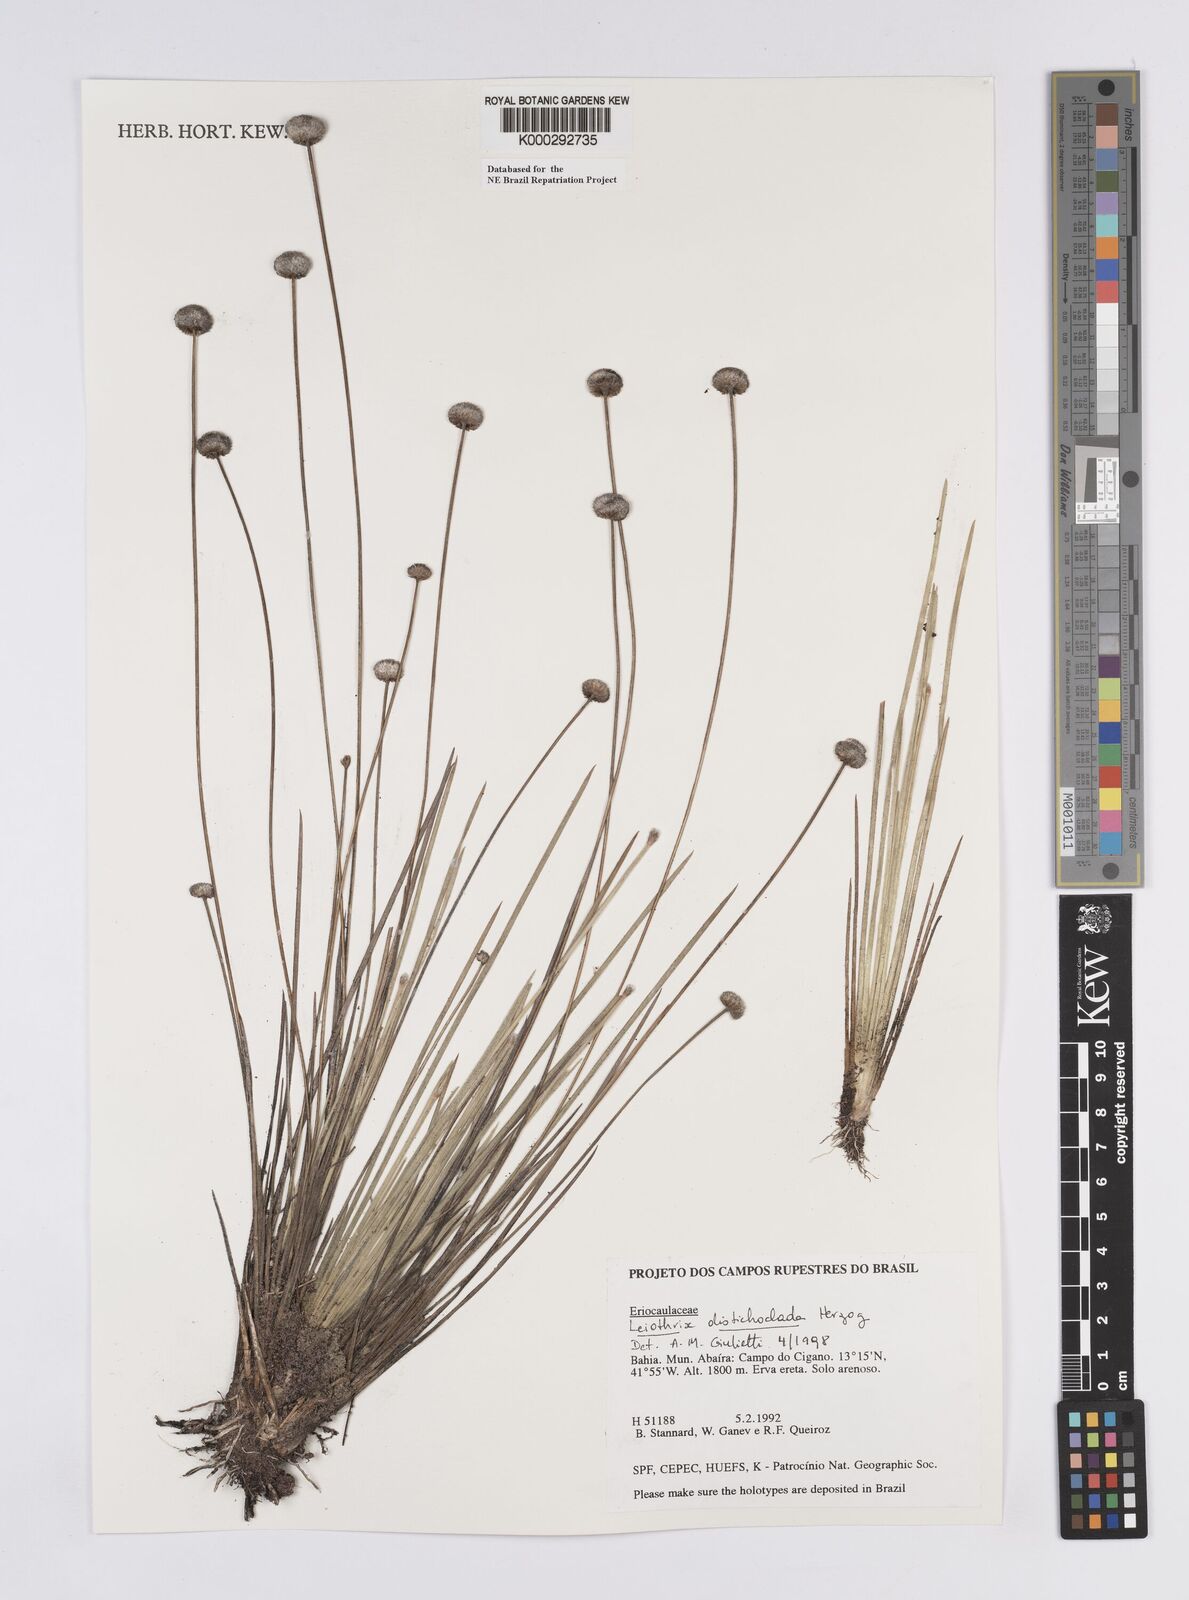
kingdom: Plantae
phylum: Tracheophyta
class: Liliopsida
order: Poales
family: Eriocaulaceae
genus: Leiothrix
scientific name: Leiothrix distichoclada
